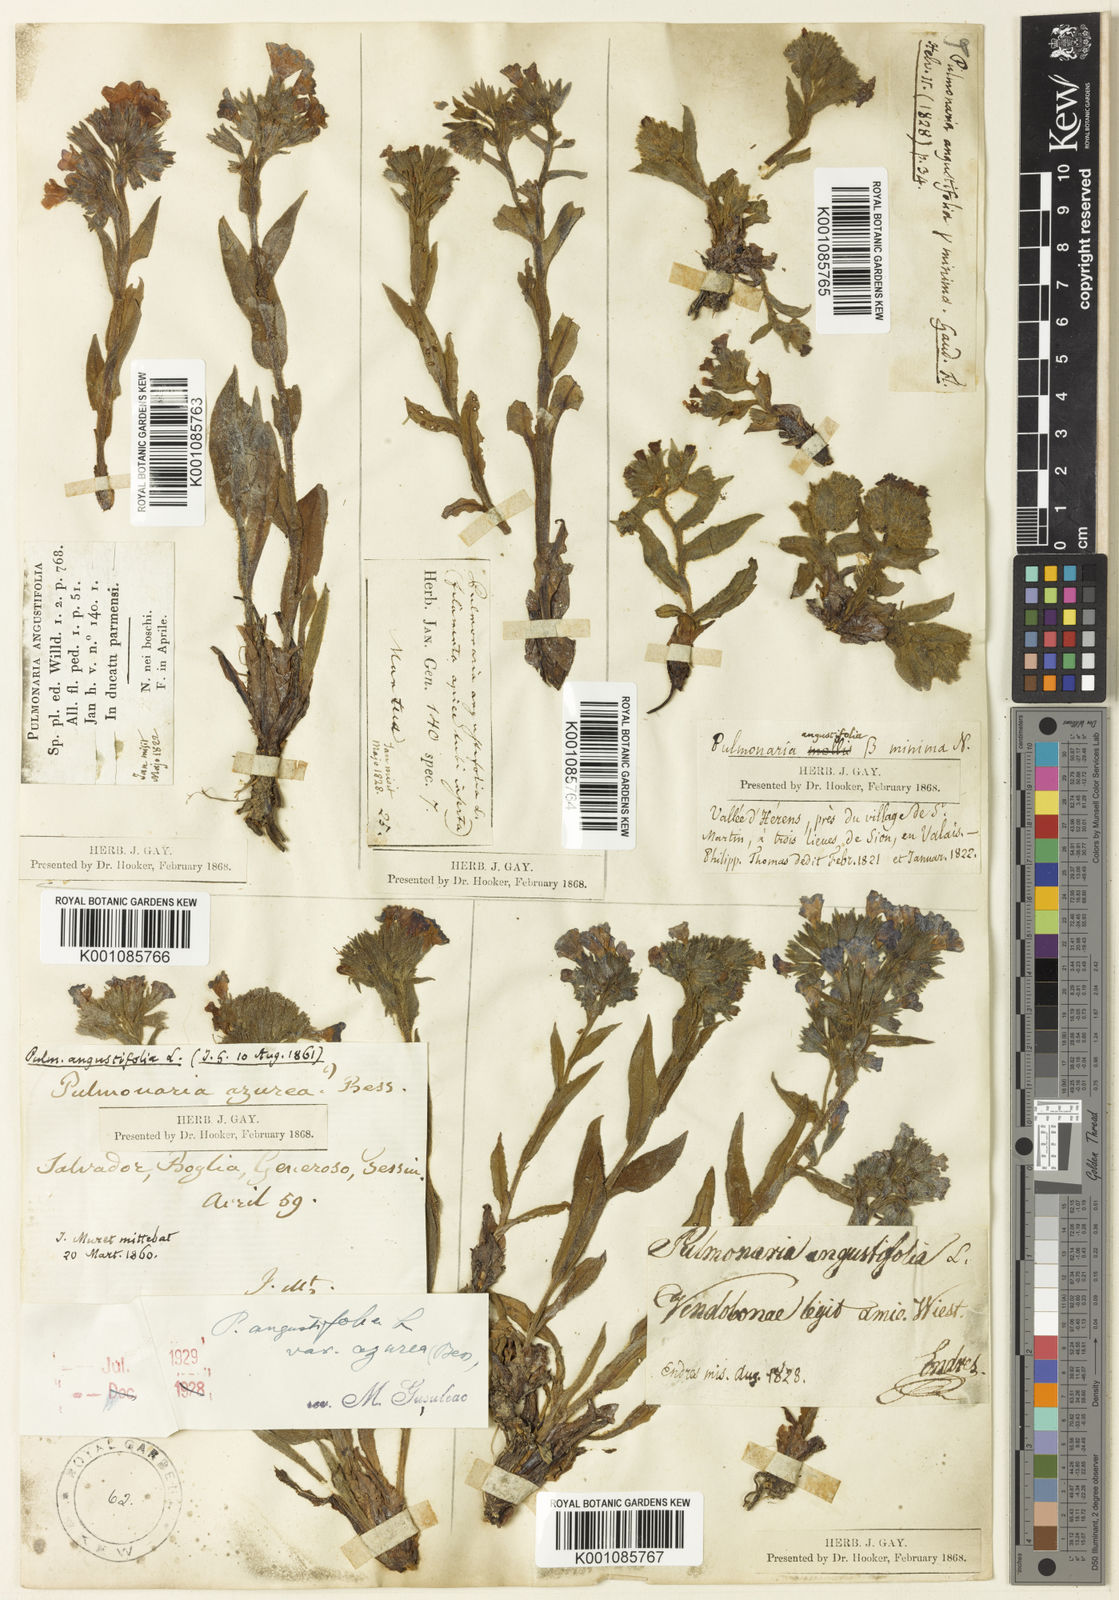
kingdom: Plantae
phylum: Tracheophyta
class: Magnoliopsida
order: Boraginales
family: Boraginaceae
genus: Pulmonaria
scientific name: Pulmonaria angustifolia
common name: Blue cowslip
